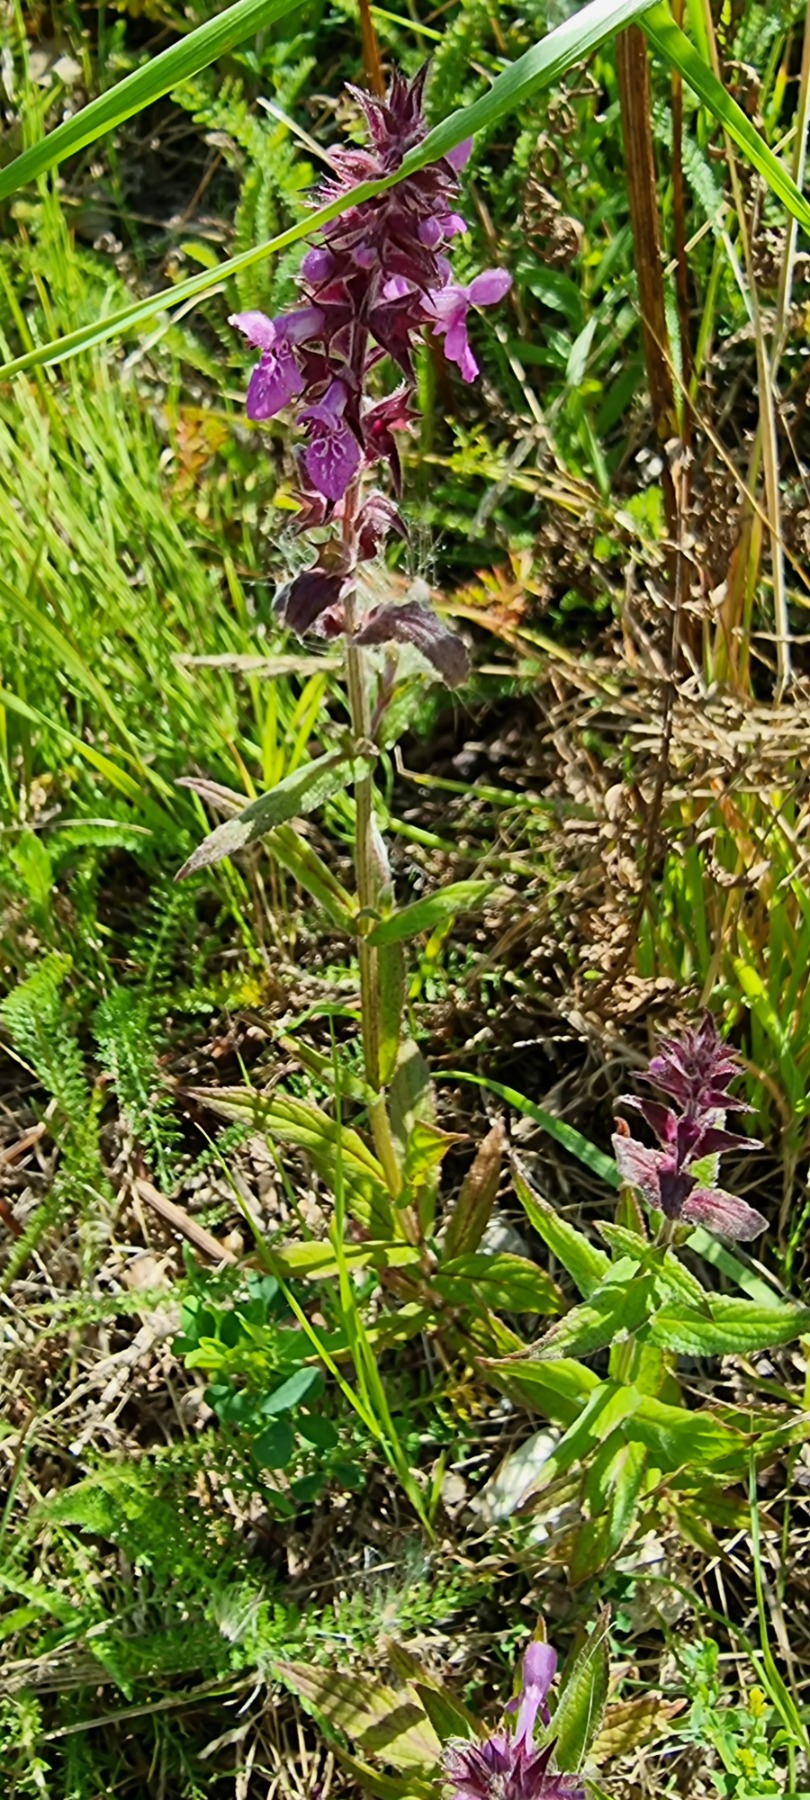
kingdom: Plantae
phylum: Tracheophyta
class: Magnoliopsida
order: Lamiales
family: Lamiaceae
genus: Stachys
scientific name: Stachys palustris
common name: Kær-galtetand
